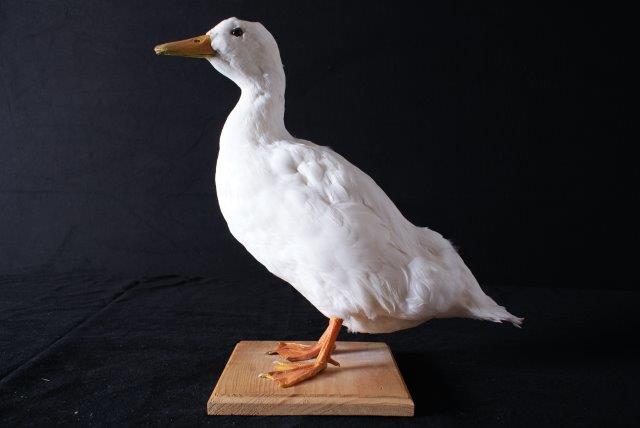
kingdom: Animalia
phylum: Chordata
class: Aves
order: Anseriformes
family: Anatidae
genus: Anas
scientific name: Anas platyrhynchos
